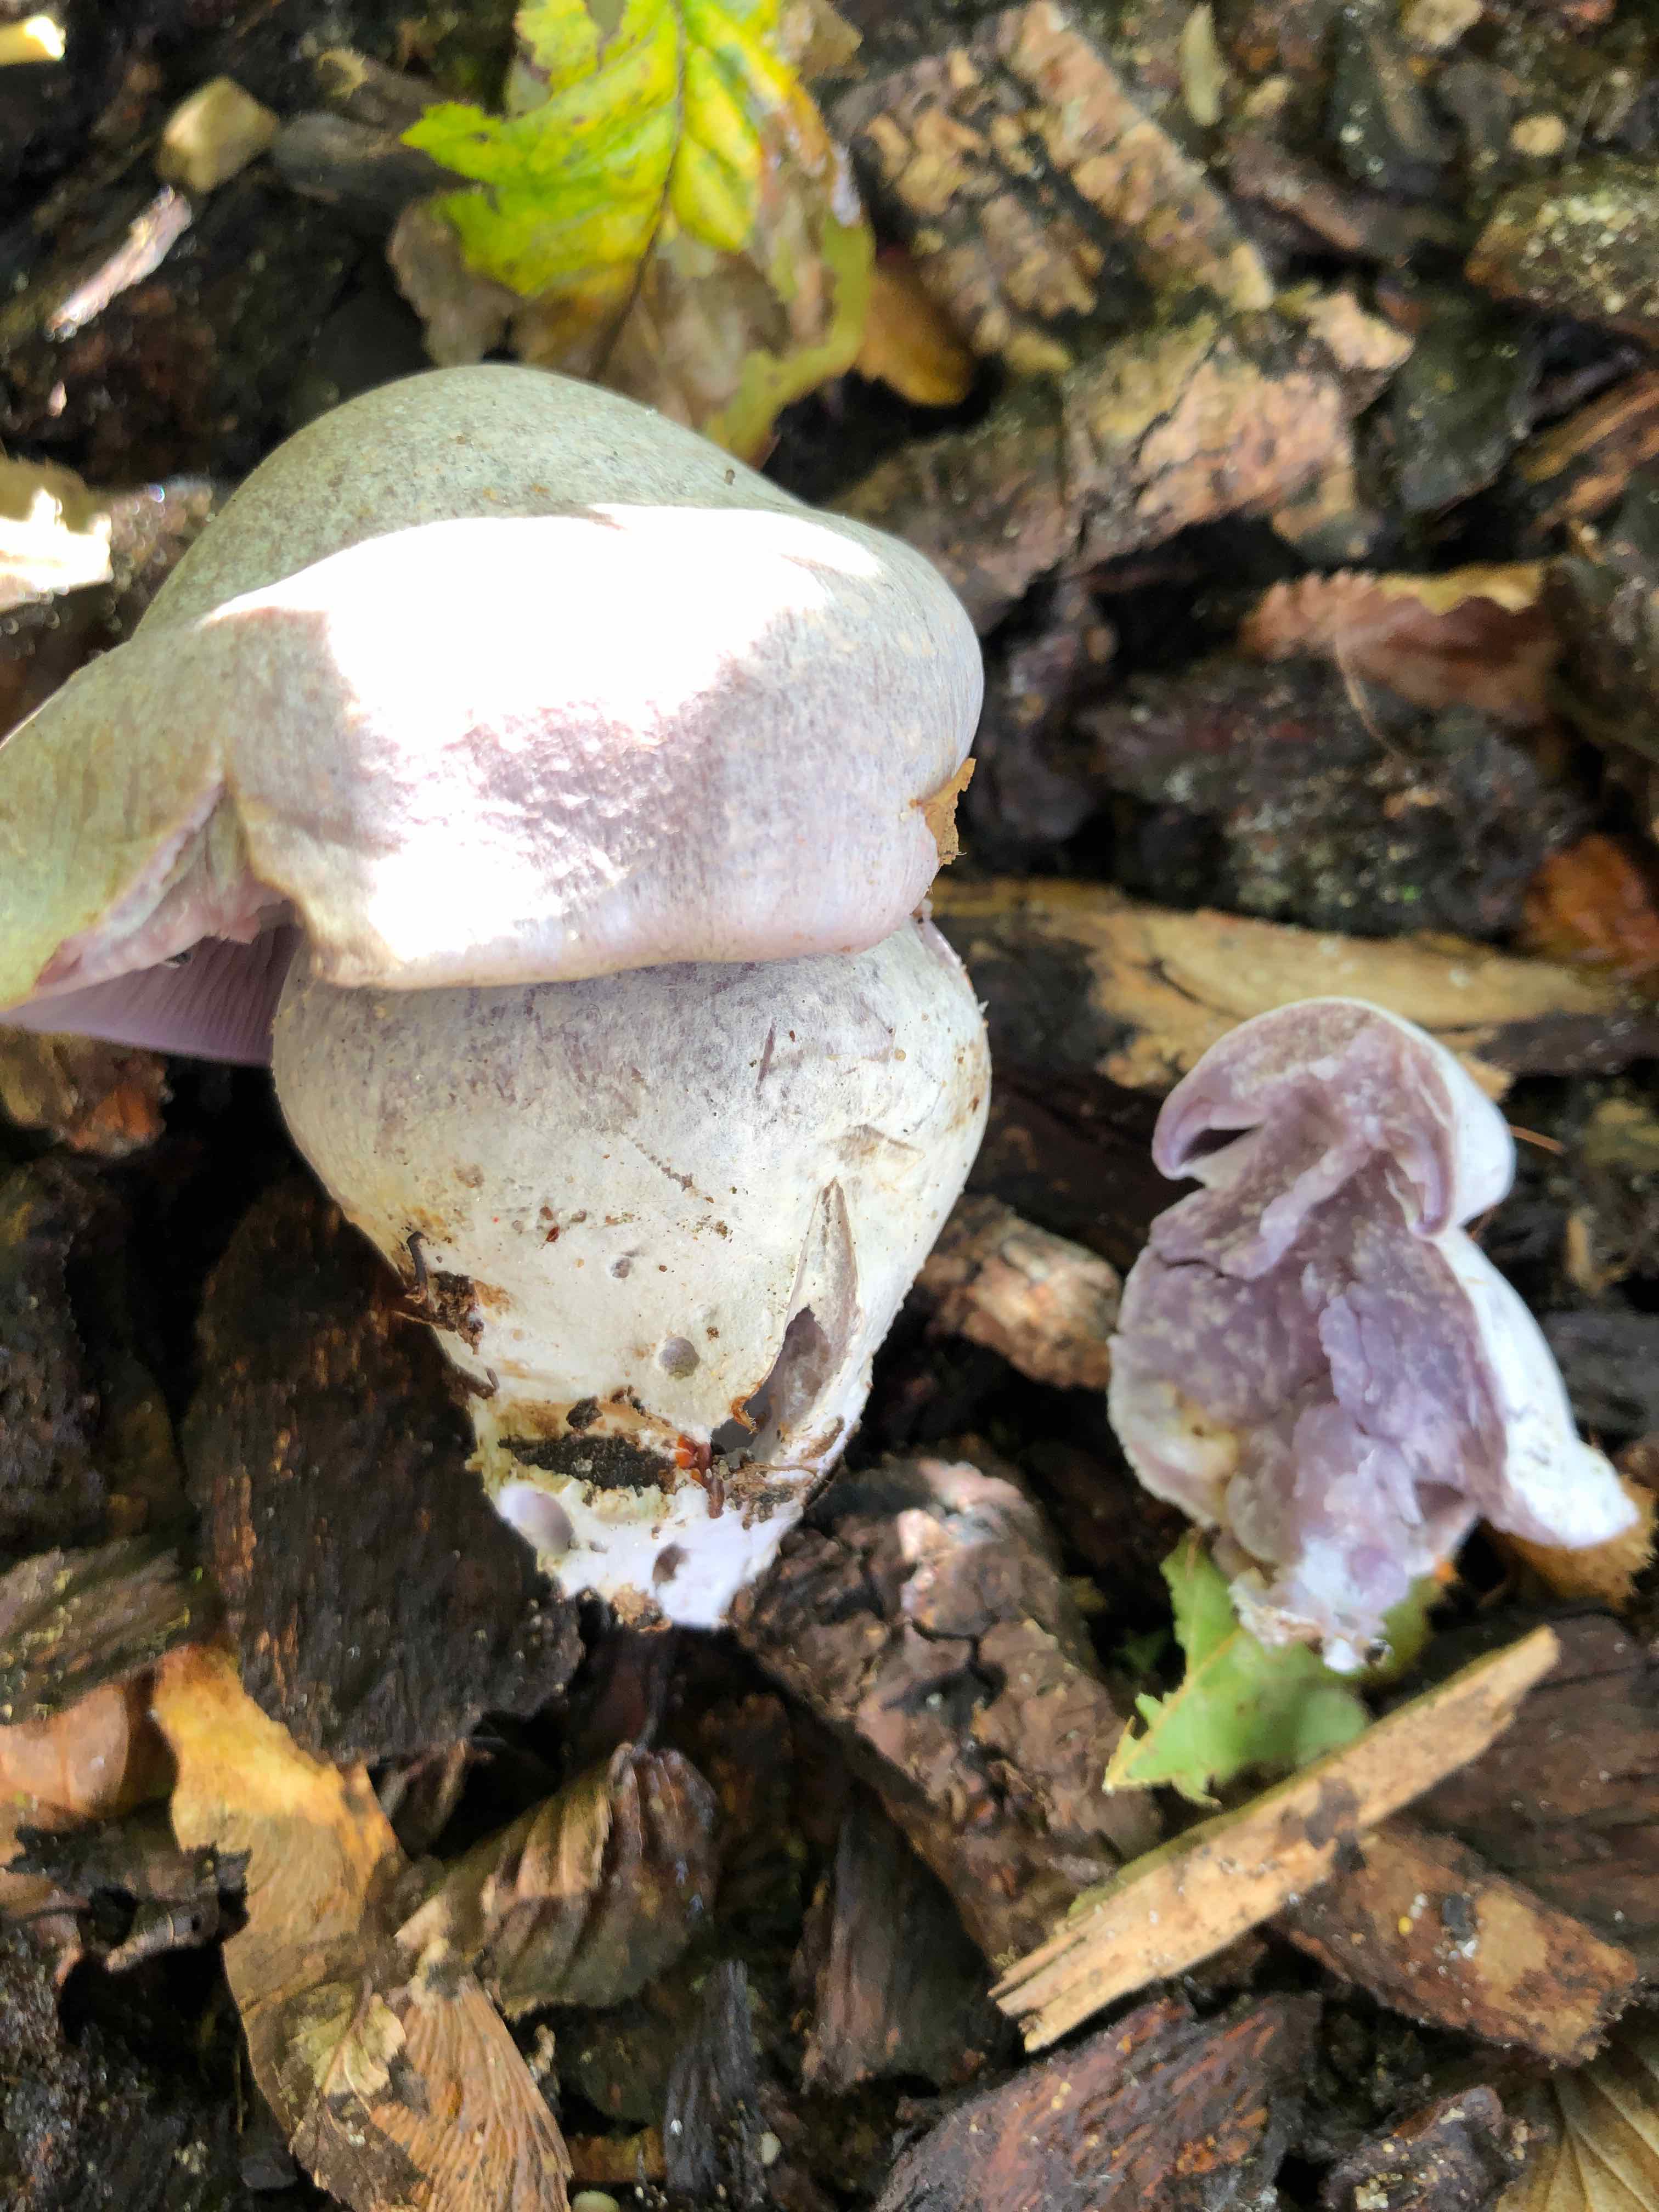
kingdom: Fungi
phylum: Basidiomycota
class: Agaricomycetes
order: Agaricales
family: Cortinariaceae
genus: Cortinarius
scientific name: Cortinarius alboviolaceus
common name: lysviolet slørhat
